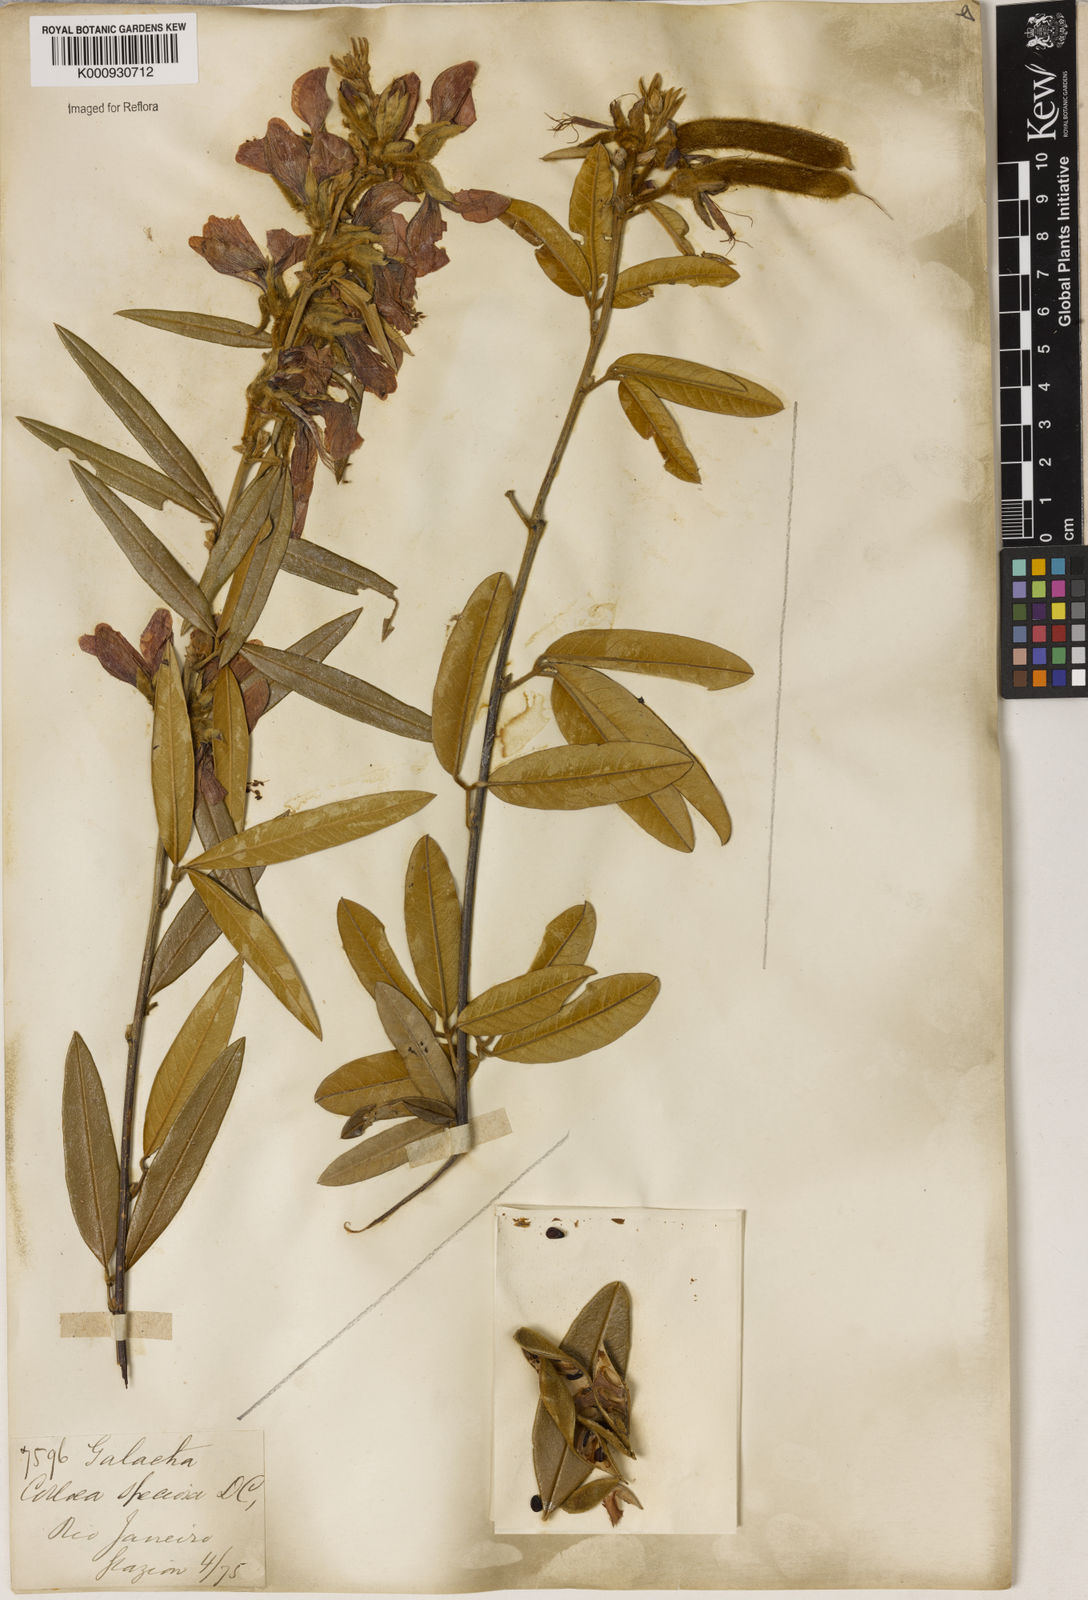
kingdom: Plantae
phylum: Tracheophyta
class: Magnoliopsida
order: Lamiales
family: Lamiaceae
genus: Coleus
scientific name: Coleus barbatus
